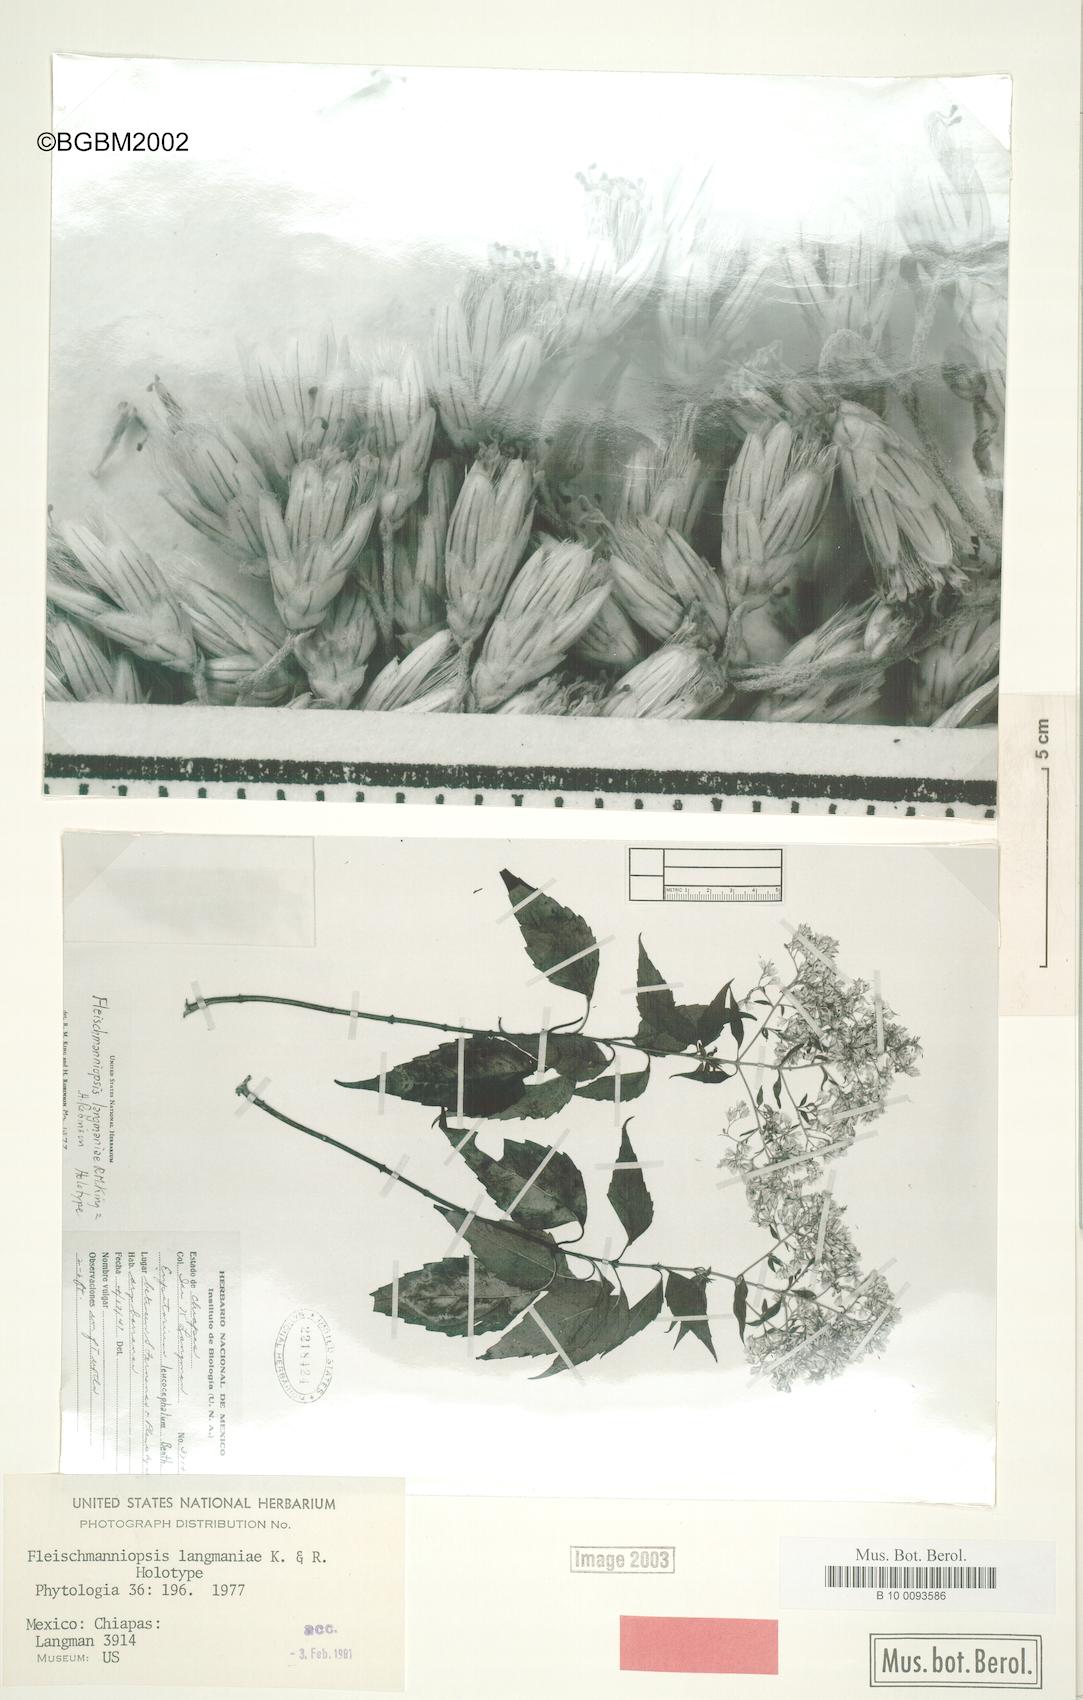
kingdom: Plantae
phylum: Tracheophyta
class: Magnoliopsida
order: Asterales
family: Asteraceae
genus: Fleischmanniopsis
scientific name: Fleischmanniopsis langmaniae
